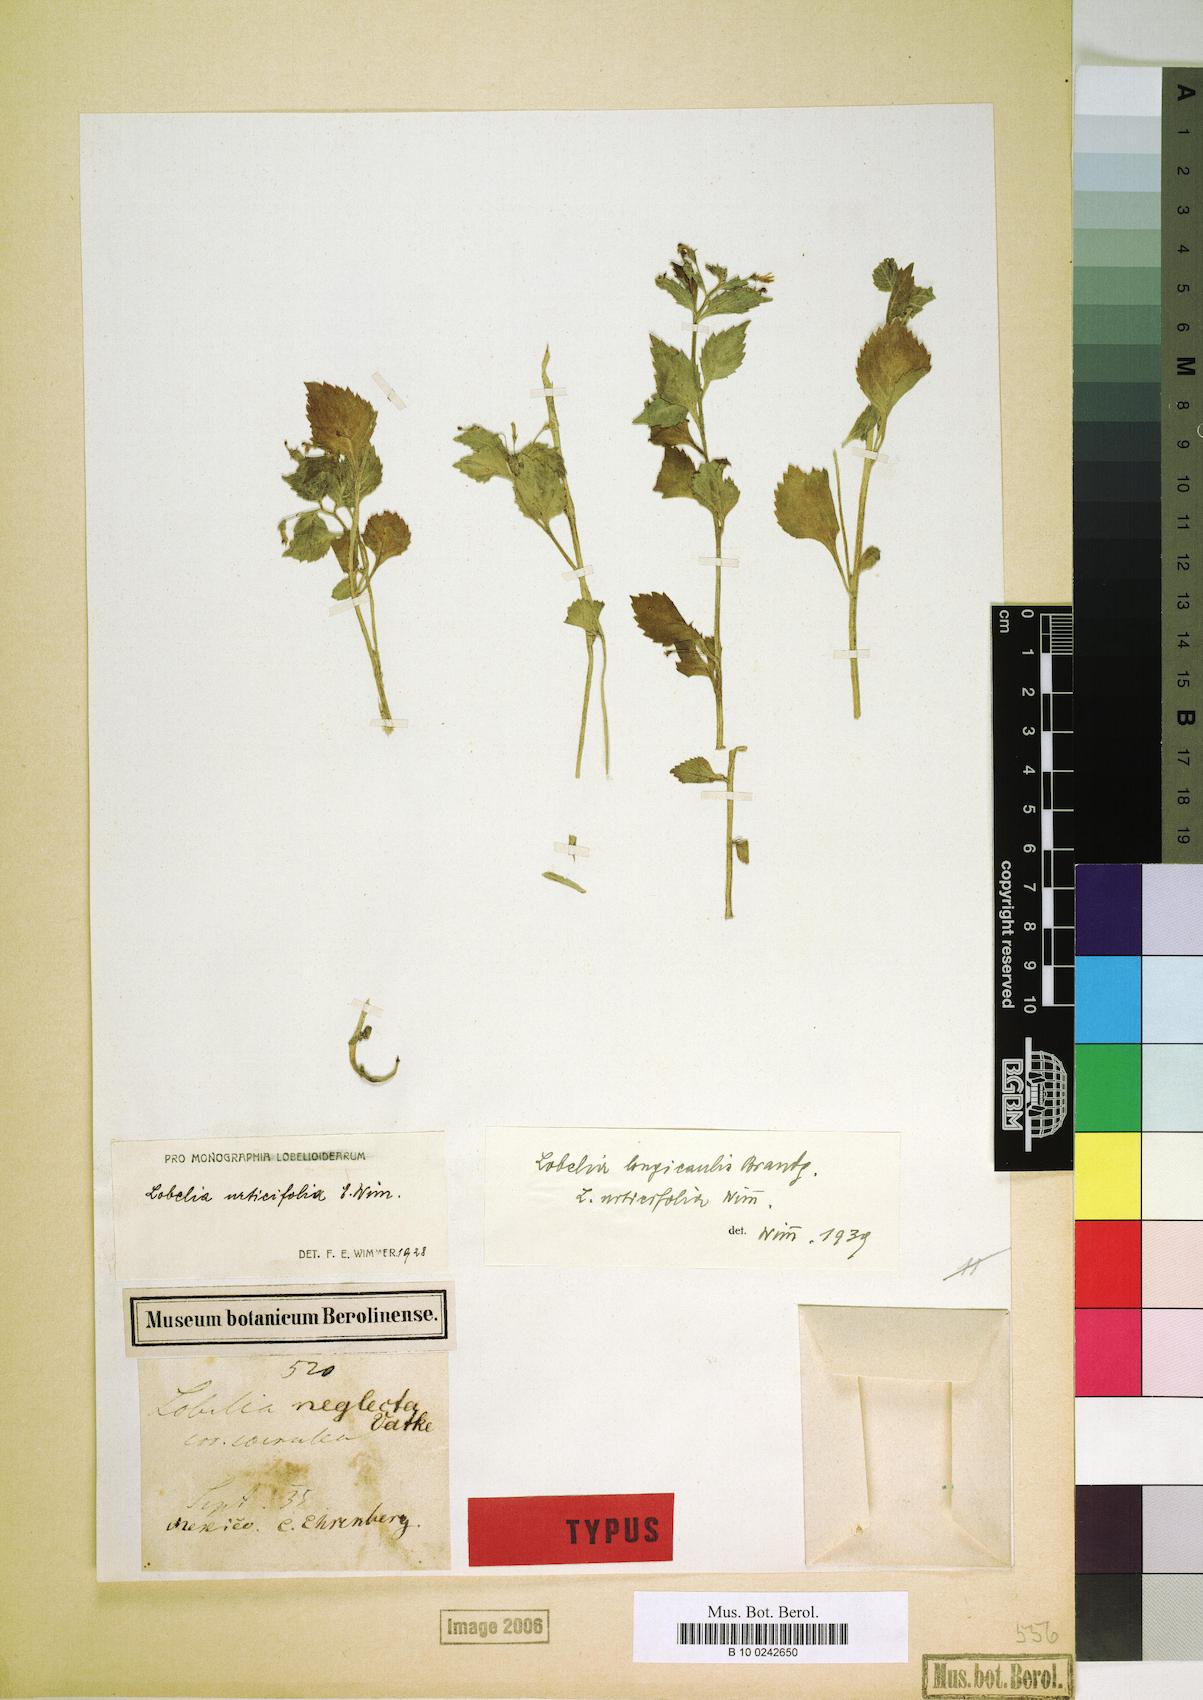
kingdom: Plantae
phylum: Tracheophyta
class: Magnoliopsida
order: Asterales
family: Campanulaceae
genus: Lobelia
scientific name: Lobelia longicaulis
